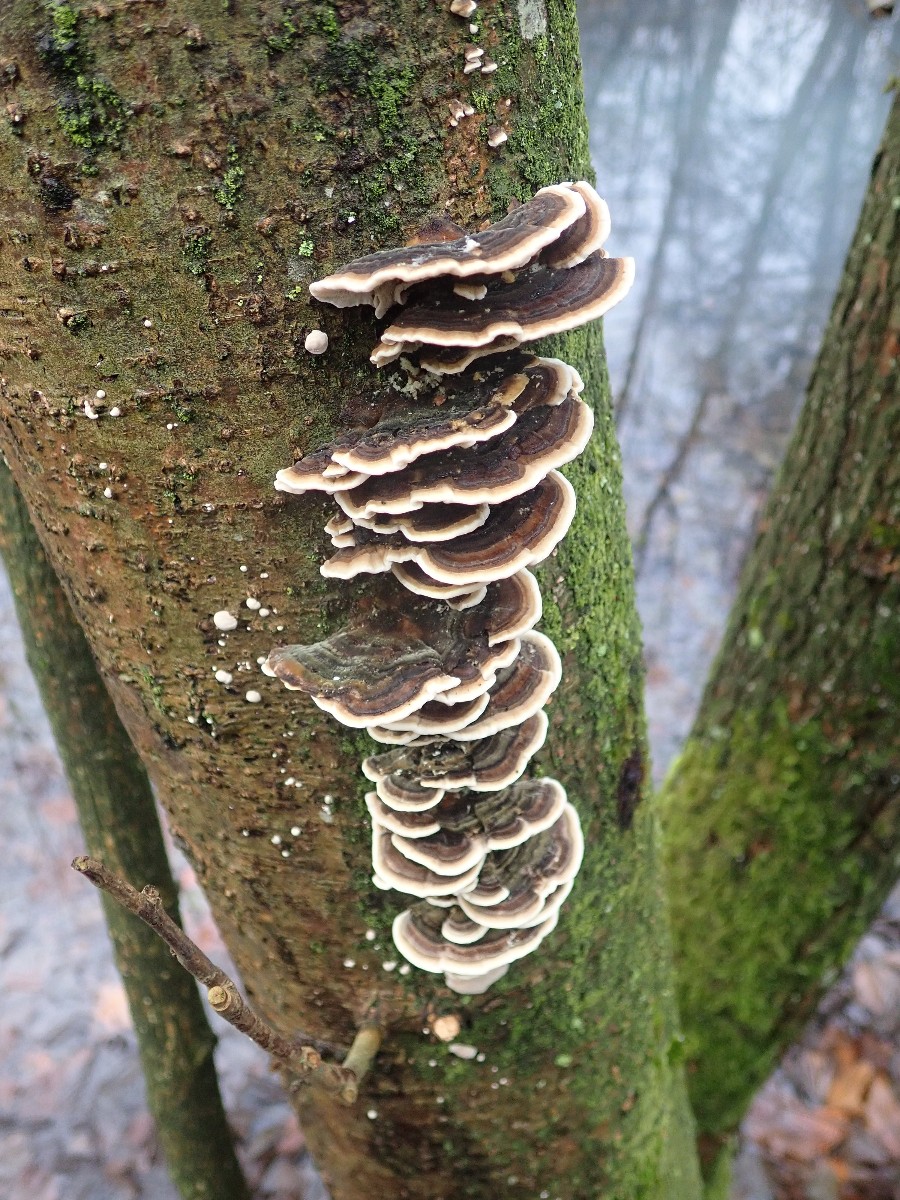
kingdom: Fungi
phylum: Basidiomycota
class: Agaricomycetes
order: Polyporales
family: Polyporaceae
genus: Trametes
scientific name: Trametes versicolor
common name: broget læderporesvamp
